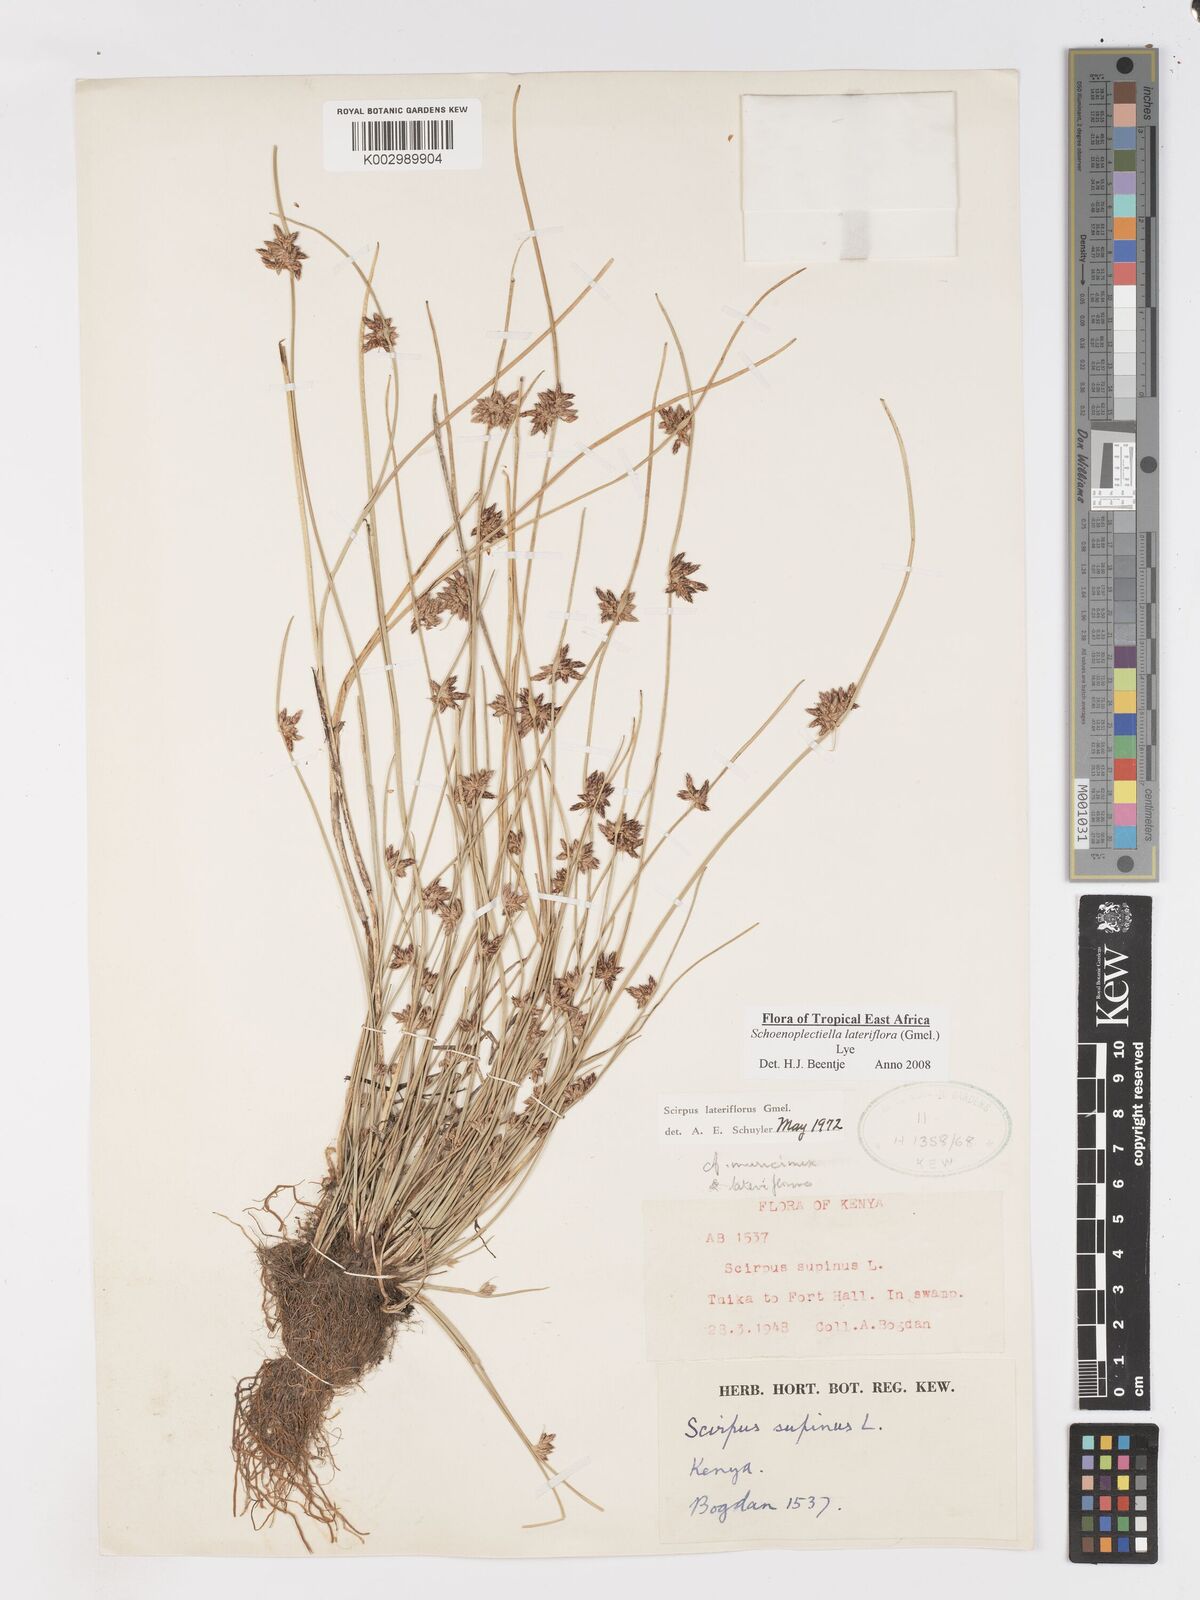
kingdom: Plantae
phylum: Tracheophyta
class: Liliopsida
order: Poales
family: Cyperaceae
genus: Schoenoplectiella
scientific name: Schoenoplectiella lateriflora
